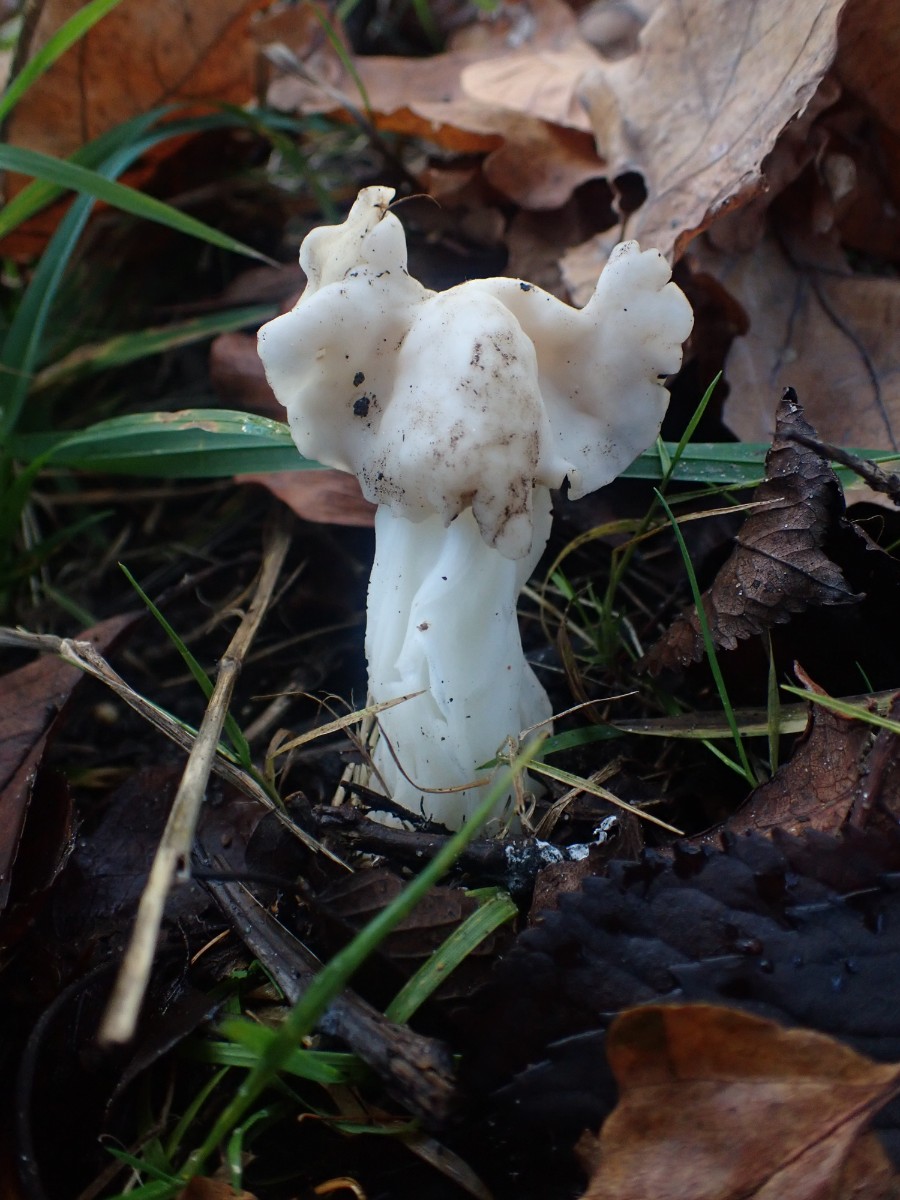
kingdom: Fungi
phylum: Ascomycota
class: Pezizomycetes
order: Pezizales
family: Helvellaceae
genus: Helvella
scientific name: Helvella crispa
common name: kruset foldhat
